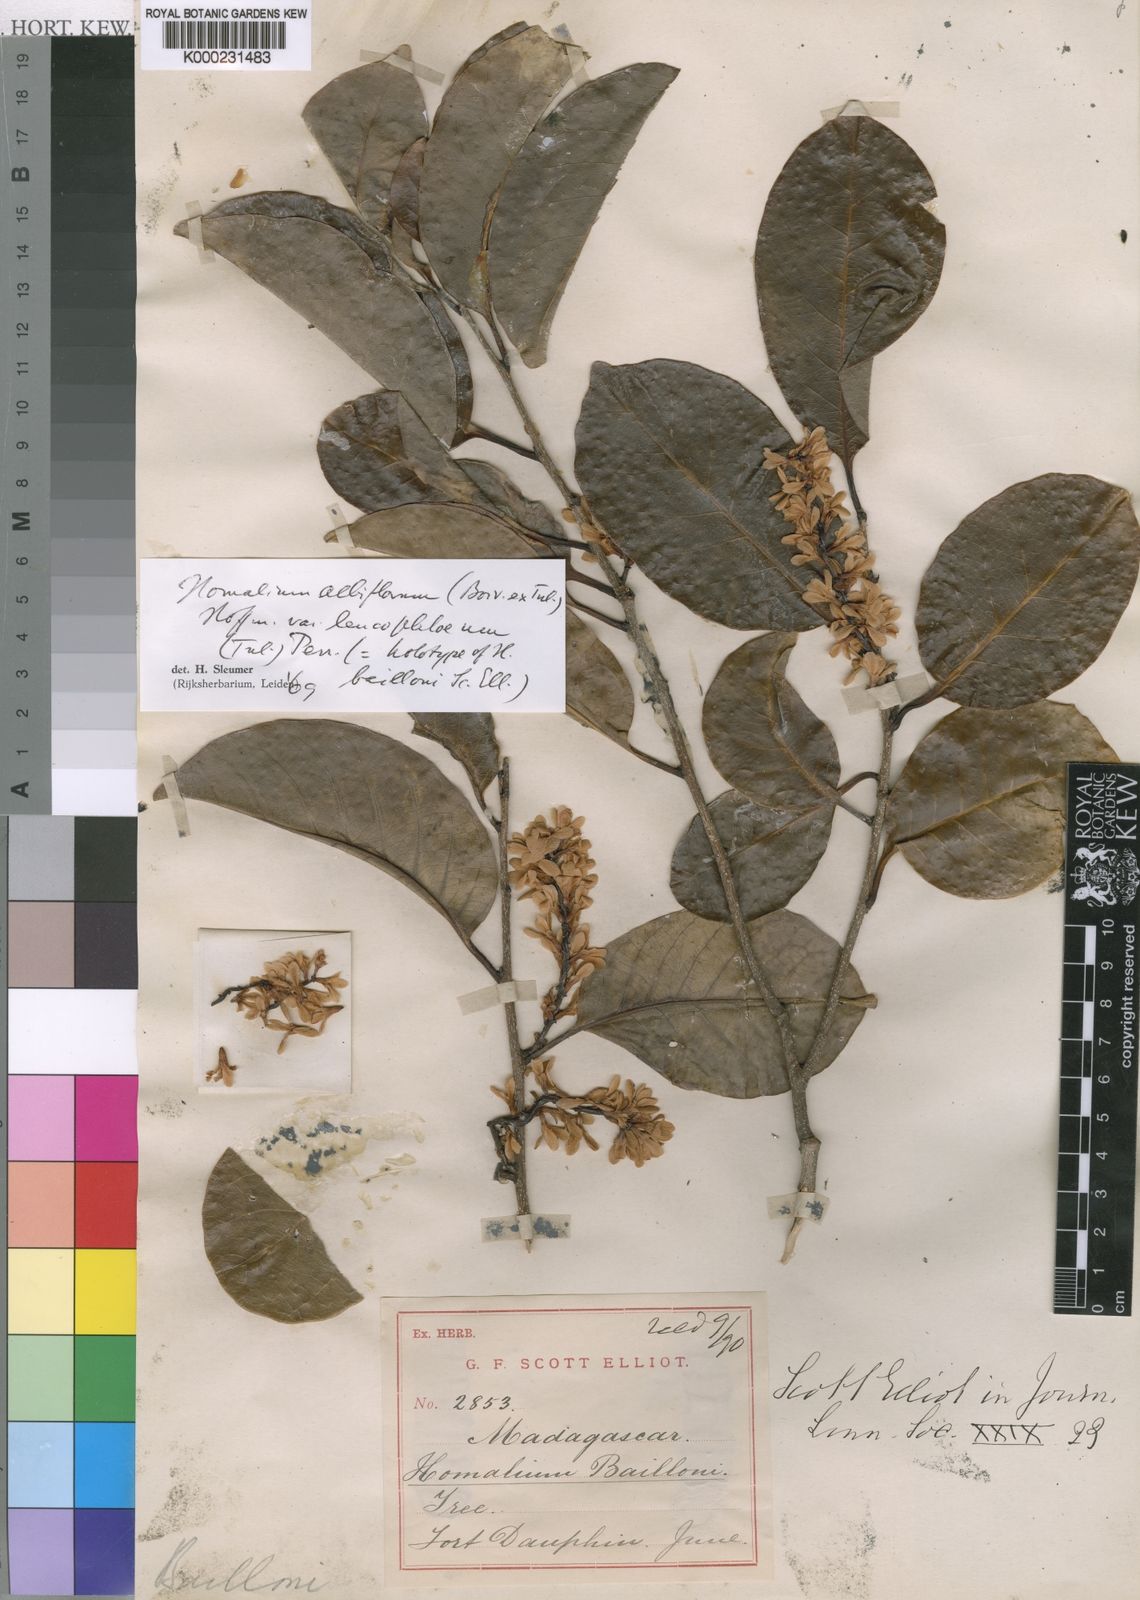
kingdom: Plantae
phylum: Tracheophyta
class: Magnoliopsida
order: Malpighiales
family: Salicaceae
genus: Homalium
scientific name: Homalium
